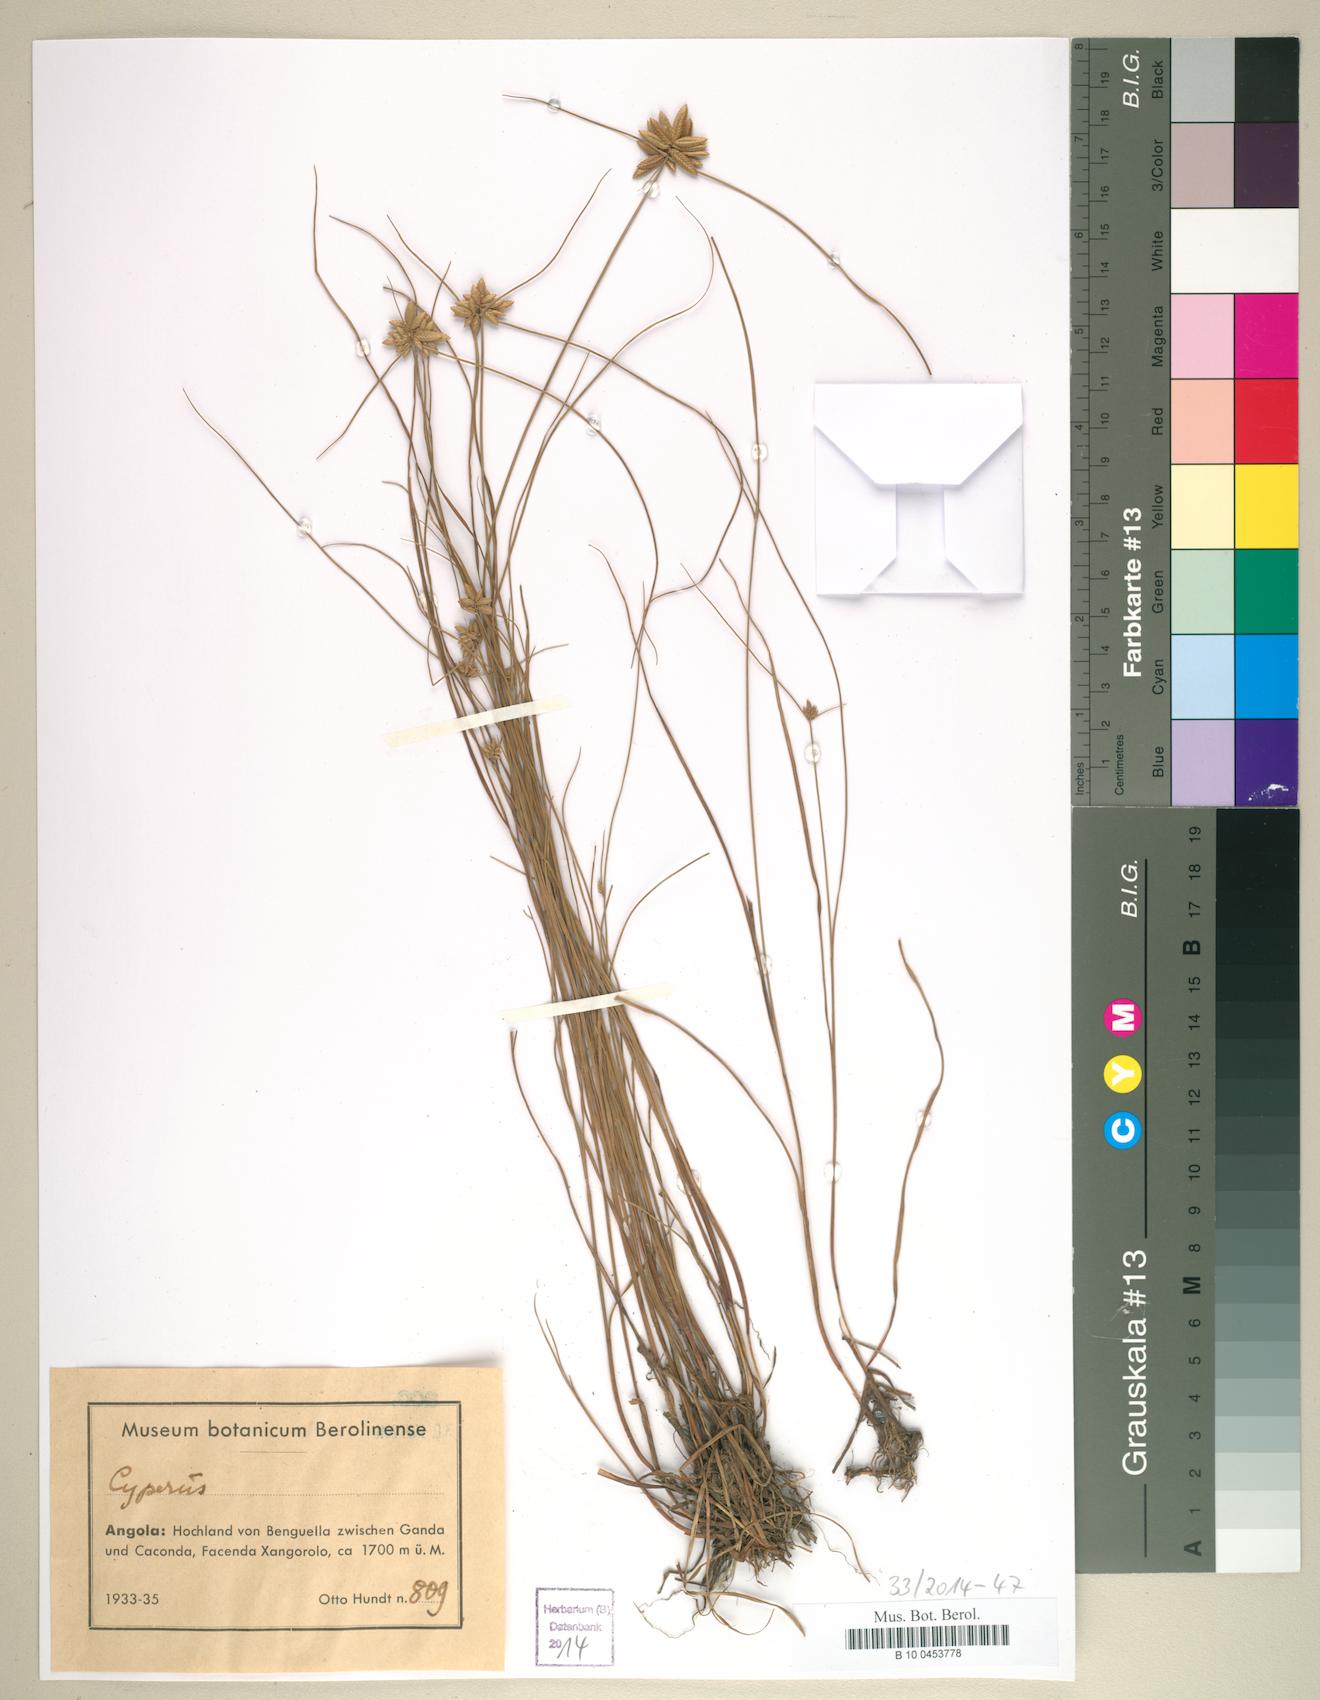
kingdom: Plantae
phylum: Tracheophyta
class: Liliopsida
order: Poales
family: Cyperaceae
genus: Cyperus
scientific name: Cyperus
